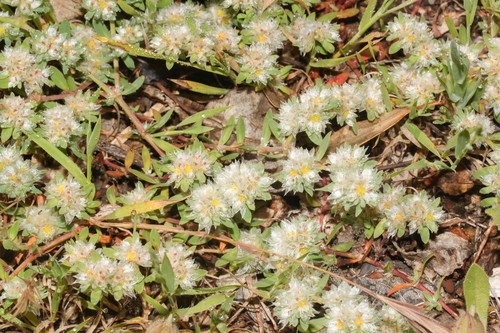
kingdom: Plantae
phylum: Tracheophyta
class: Magnoliopsida
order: Caryophyllales
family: Caryophyllaceae
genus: Paronychia
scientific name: Paronychia argentea
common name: Silver nailroot
